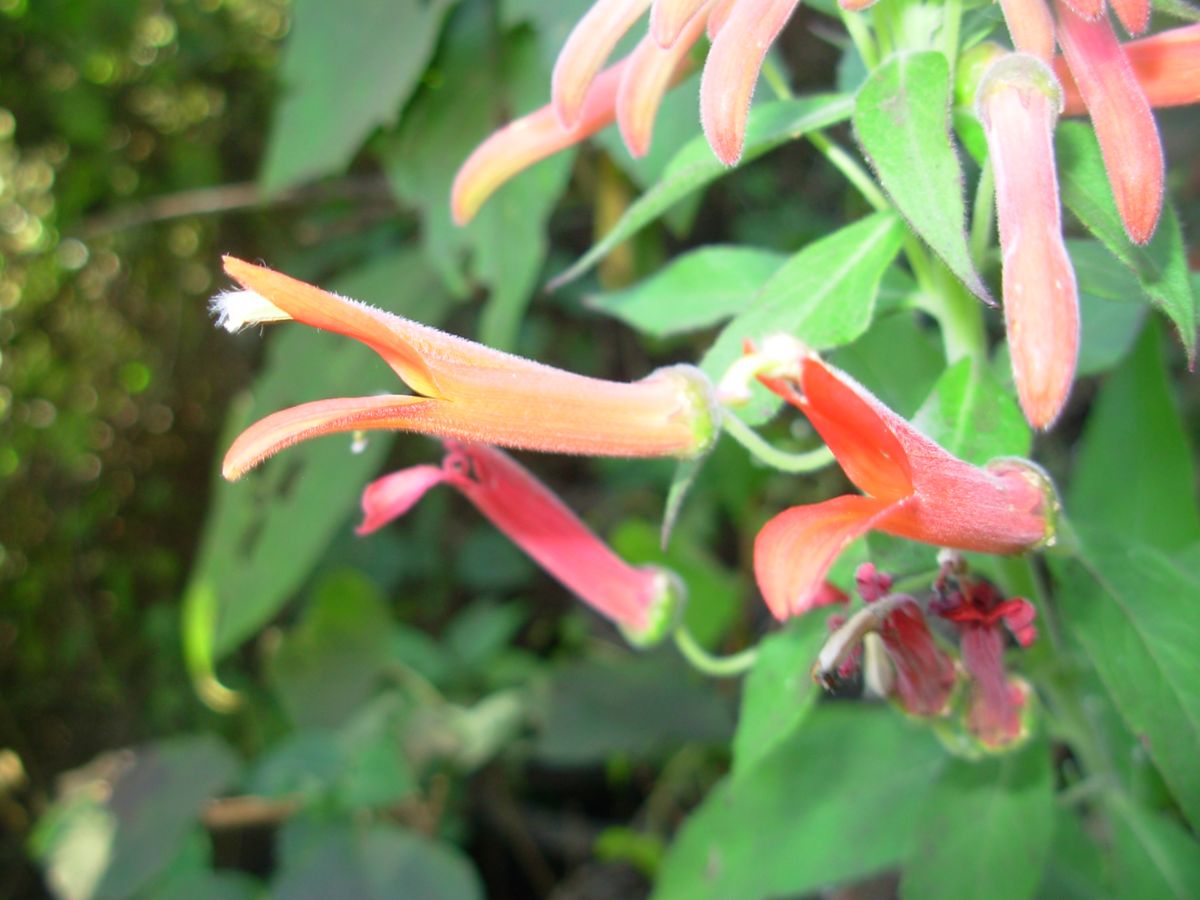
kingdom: Plantae
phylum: Tracheophyta
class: Magnoliopsida
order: Asterales
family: Campanulaceae
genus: Lobelia
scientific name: Lobelia laxiflora
